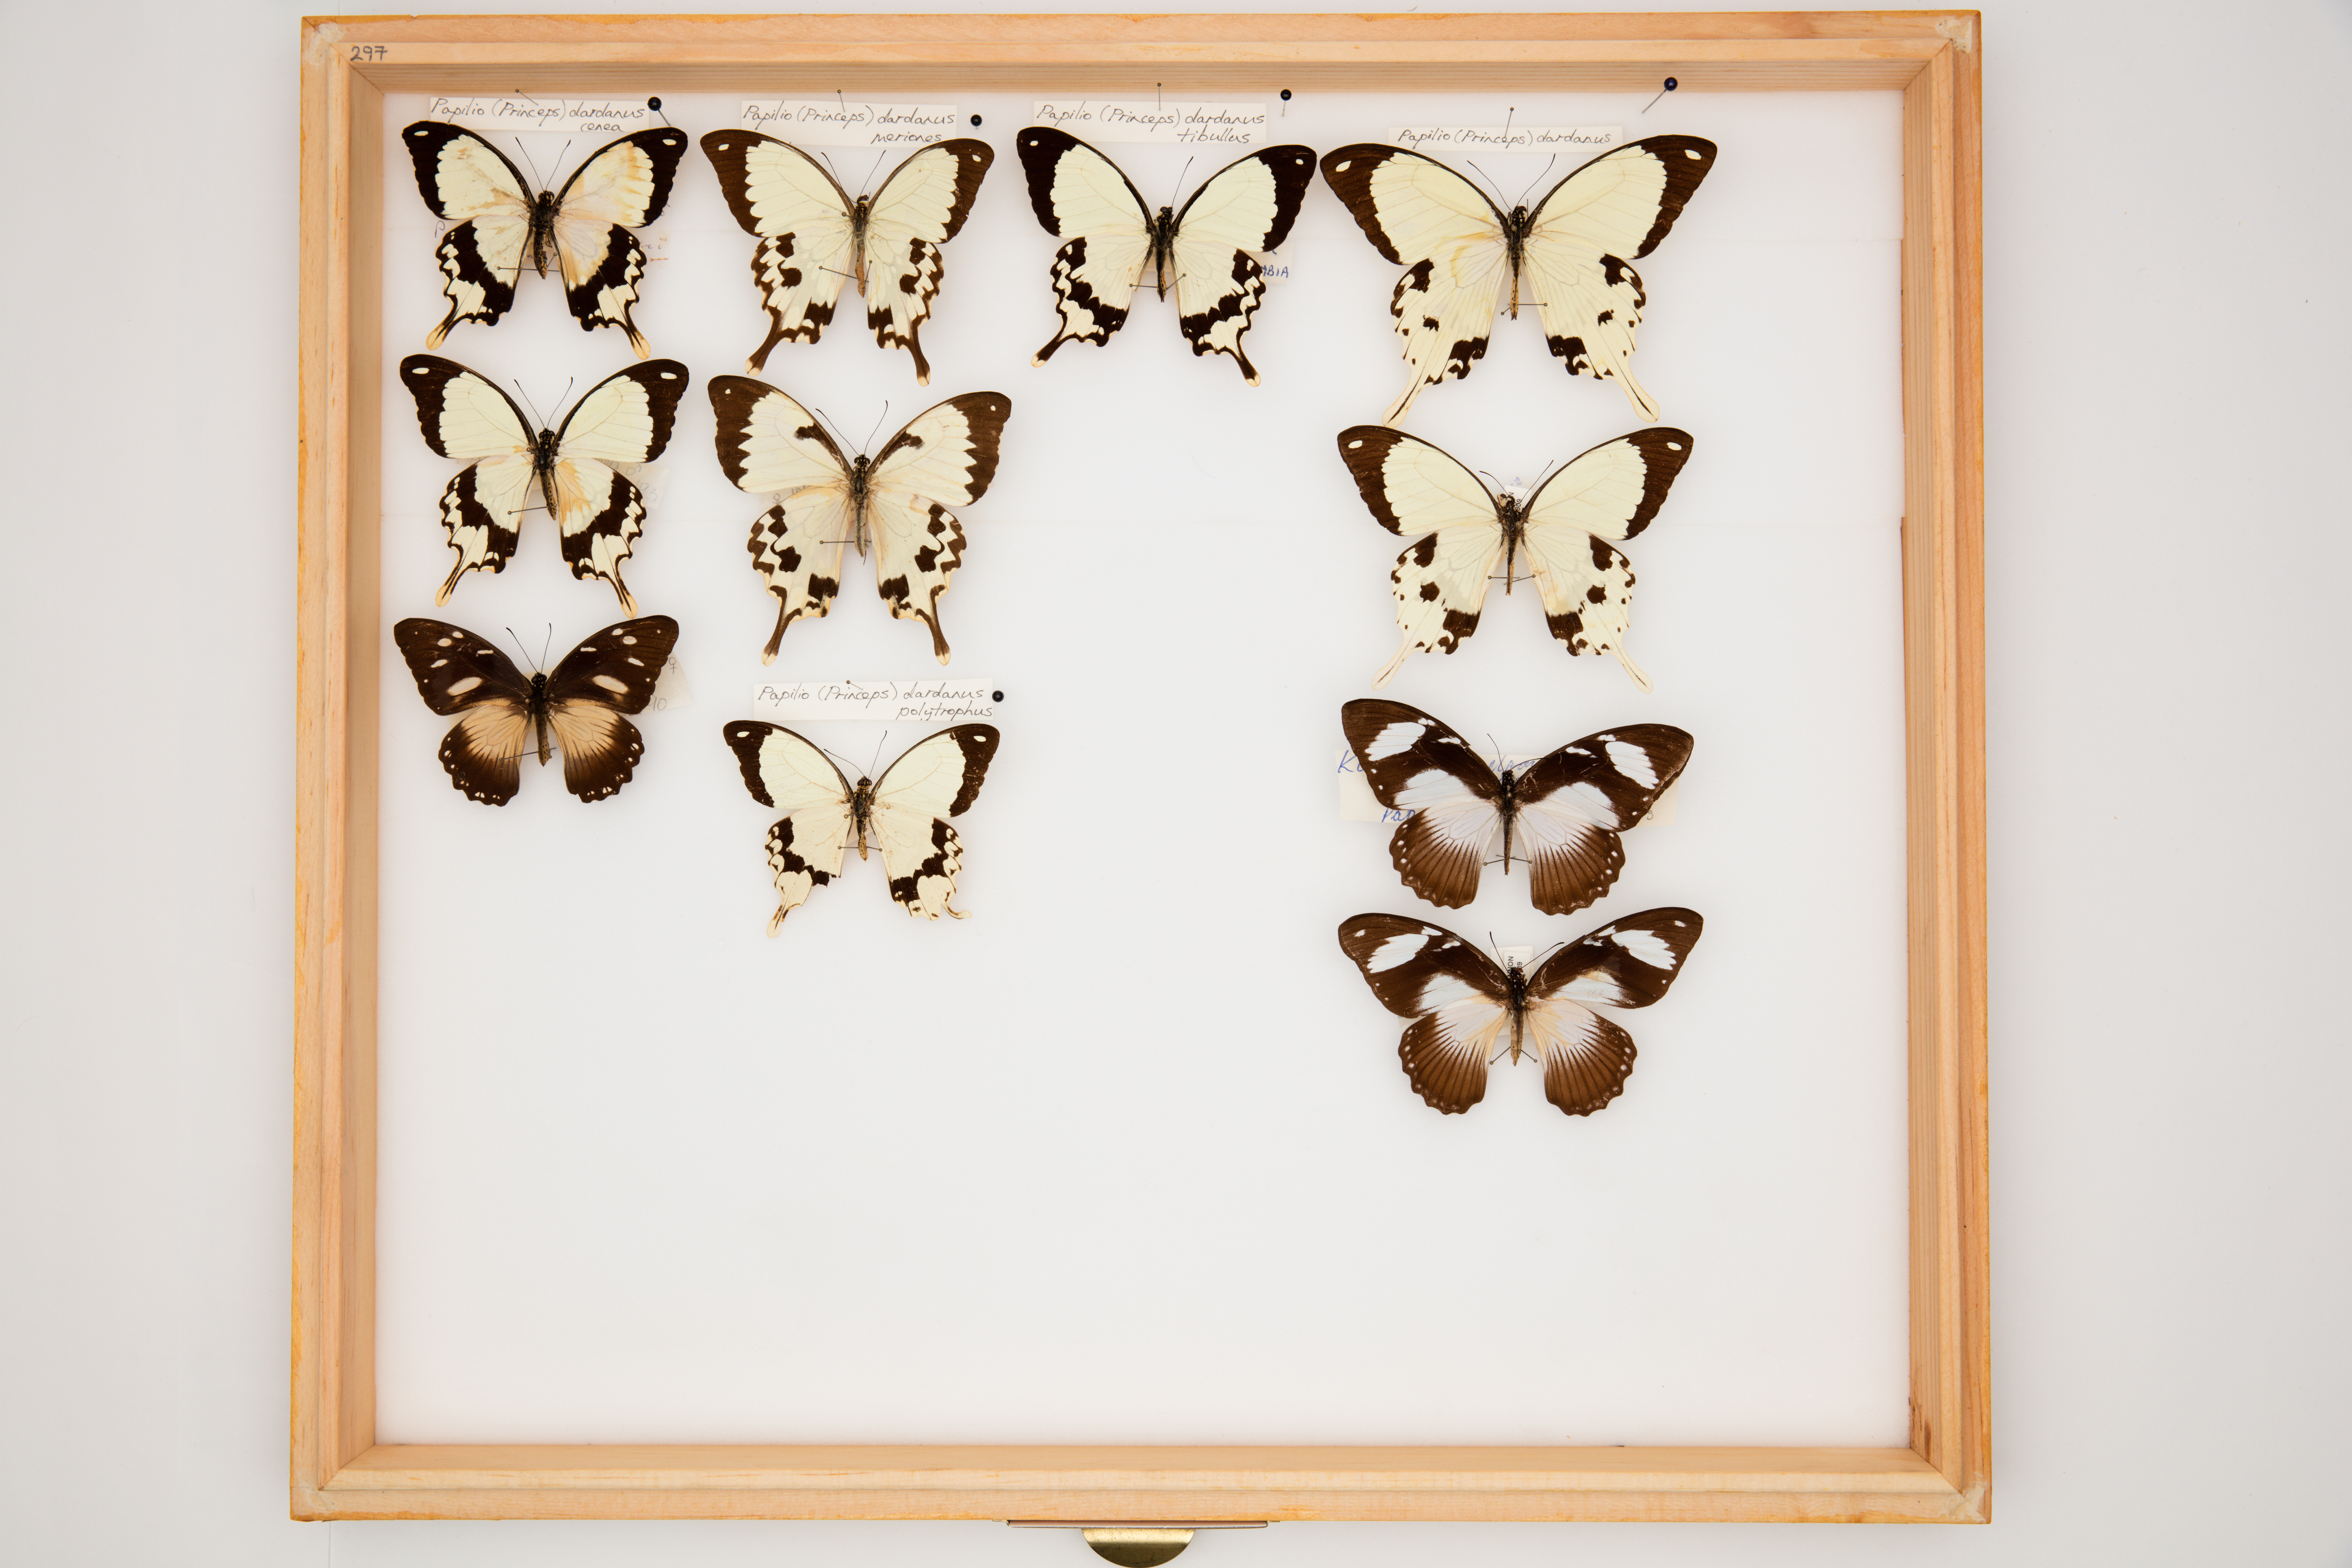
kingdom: Animalia
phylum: Arthropoda
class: Insecta
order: Lepidoptera
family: Papilionidae
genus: Papilio
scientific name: Papilio dardanus
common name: Flying handkerchief
